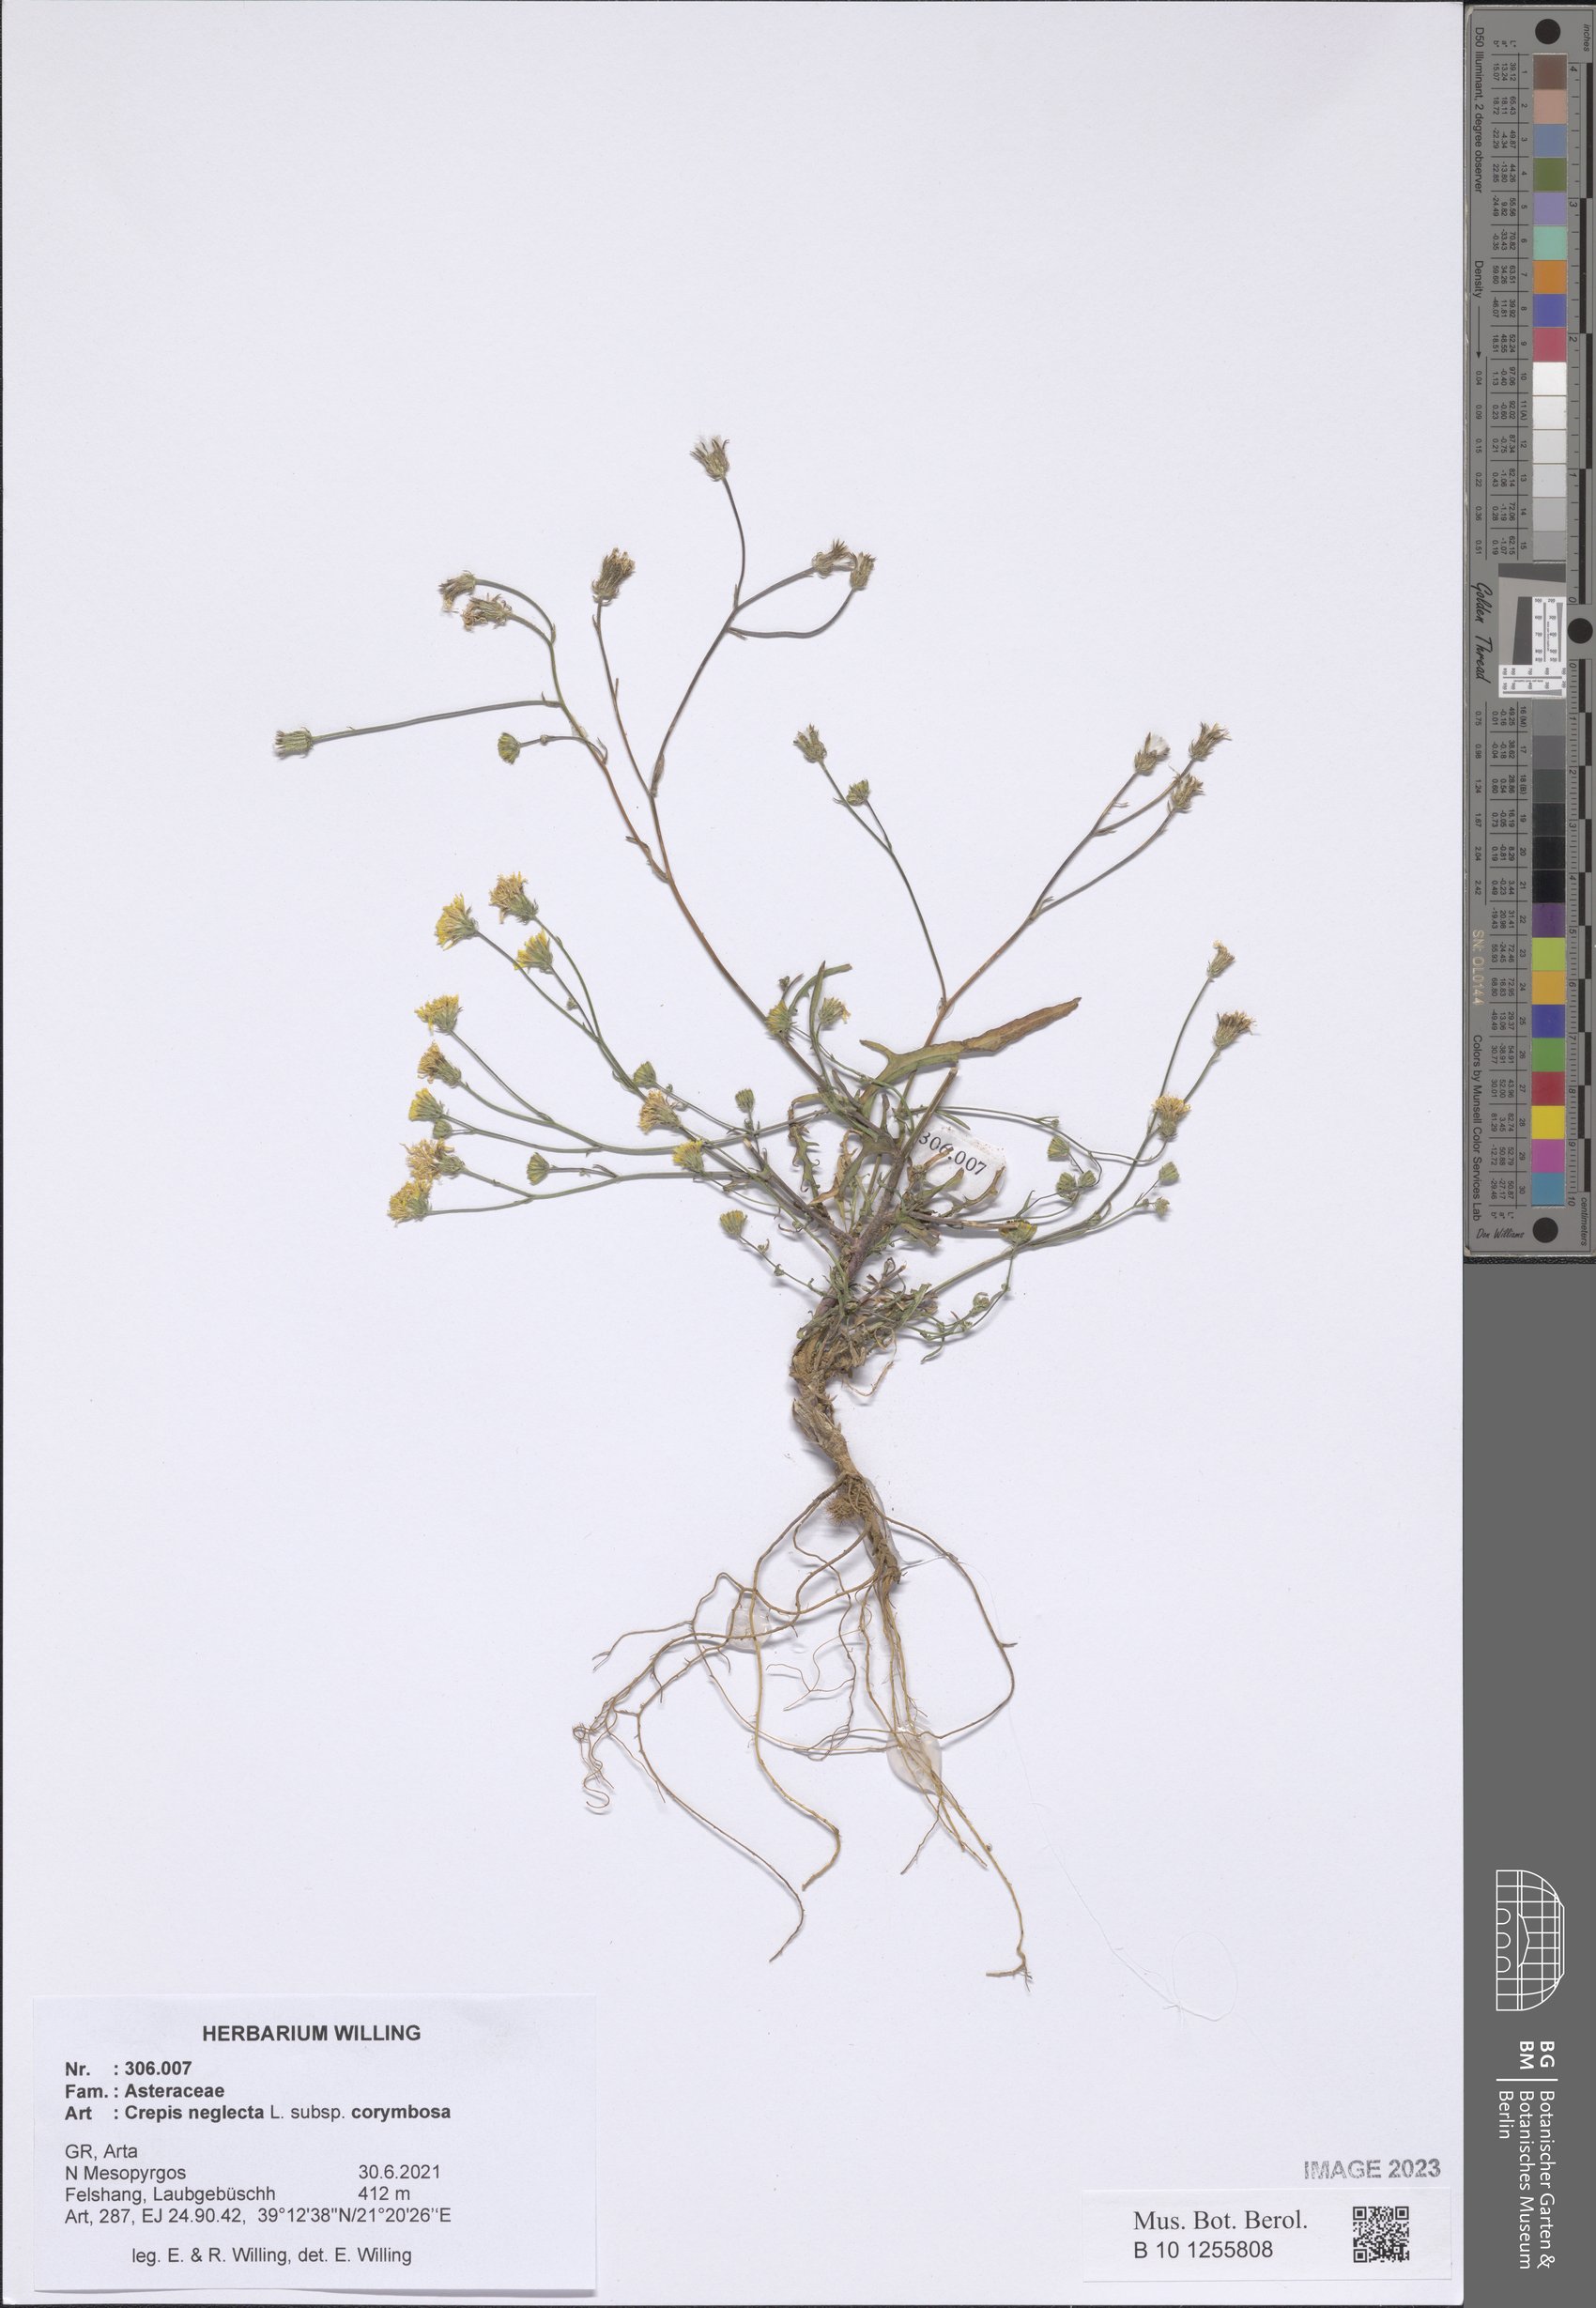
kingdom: Plantae
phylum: Tracheophyta
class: Magnoliopsida
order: Asterales
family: Asteraceae
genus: Crepis
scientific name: Crepis neglecta
